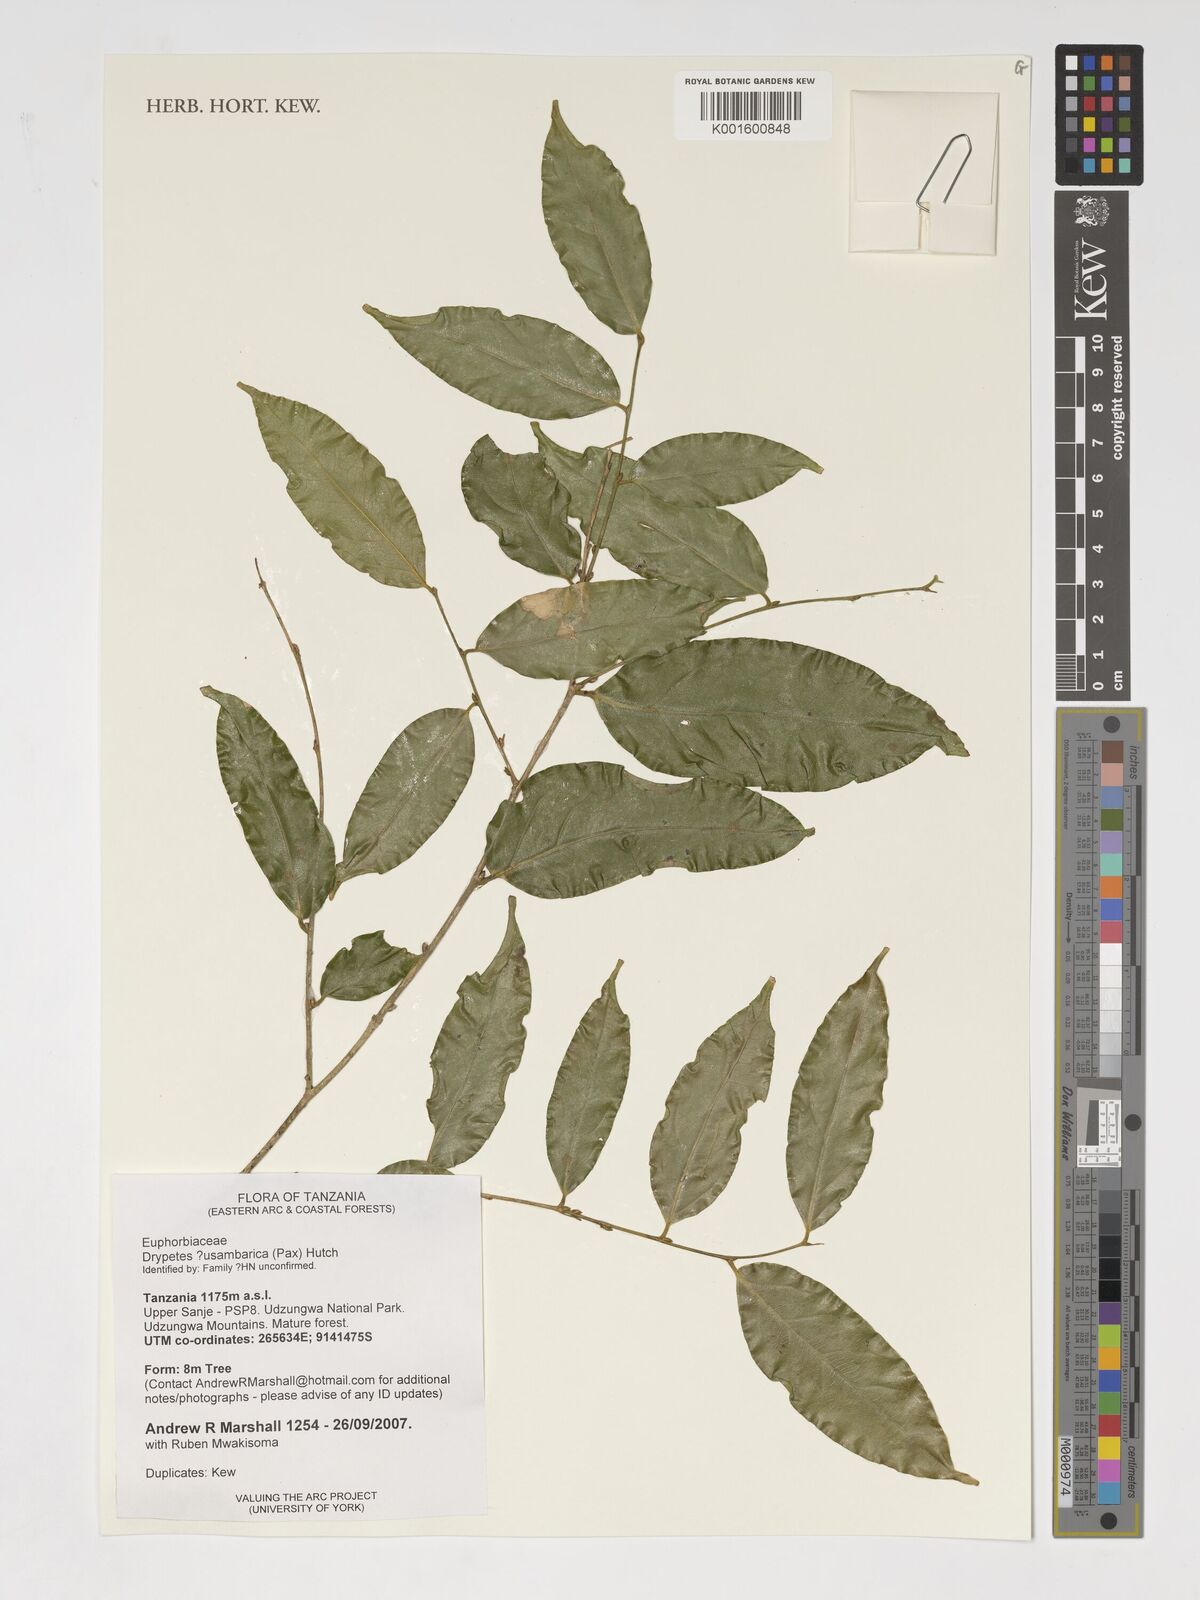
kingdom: Plantae
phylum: Tracheophyta
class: Magnoliopsida
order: Malpighiales
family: Putranjivaceae
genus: Drypetes
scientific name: Drypetes usambarica
